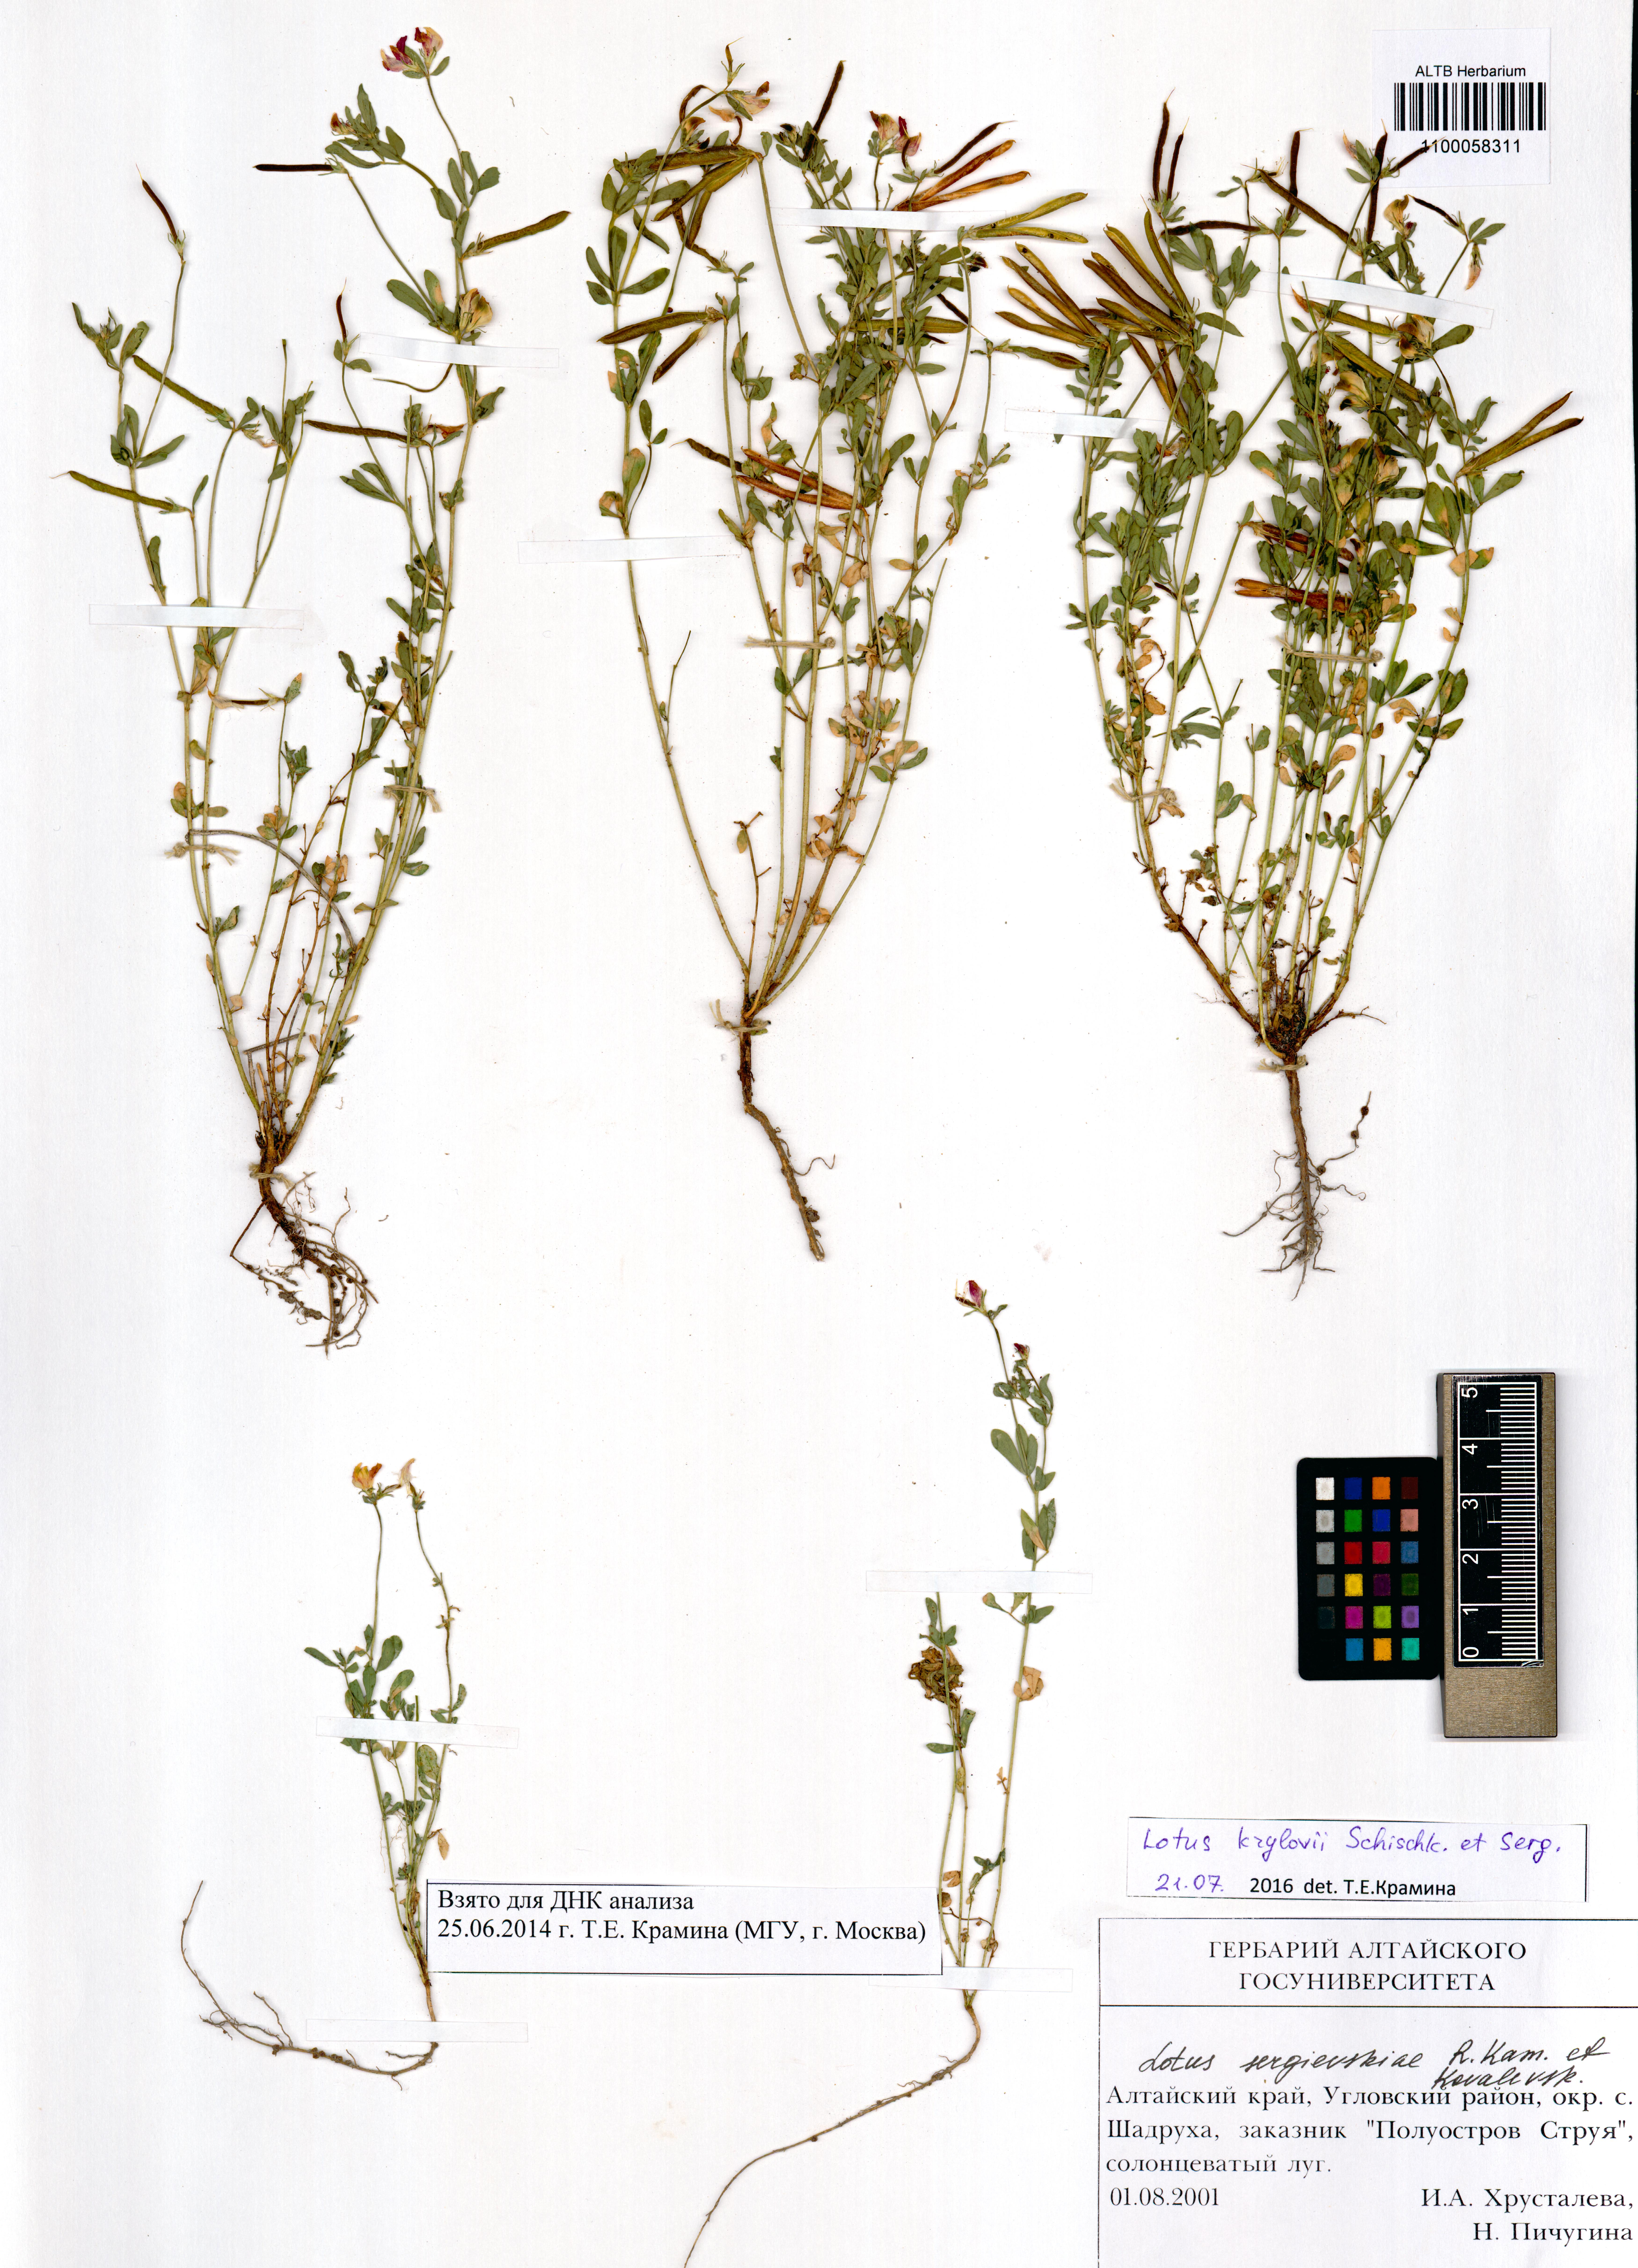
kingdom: Plantae
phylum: Tracheophyta
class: Magnoliopsida
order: Fabales
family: Fabaceae
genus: Lotus
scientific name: Lotus krylovii
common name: Krylov's bird's-foot trefoil
